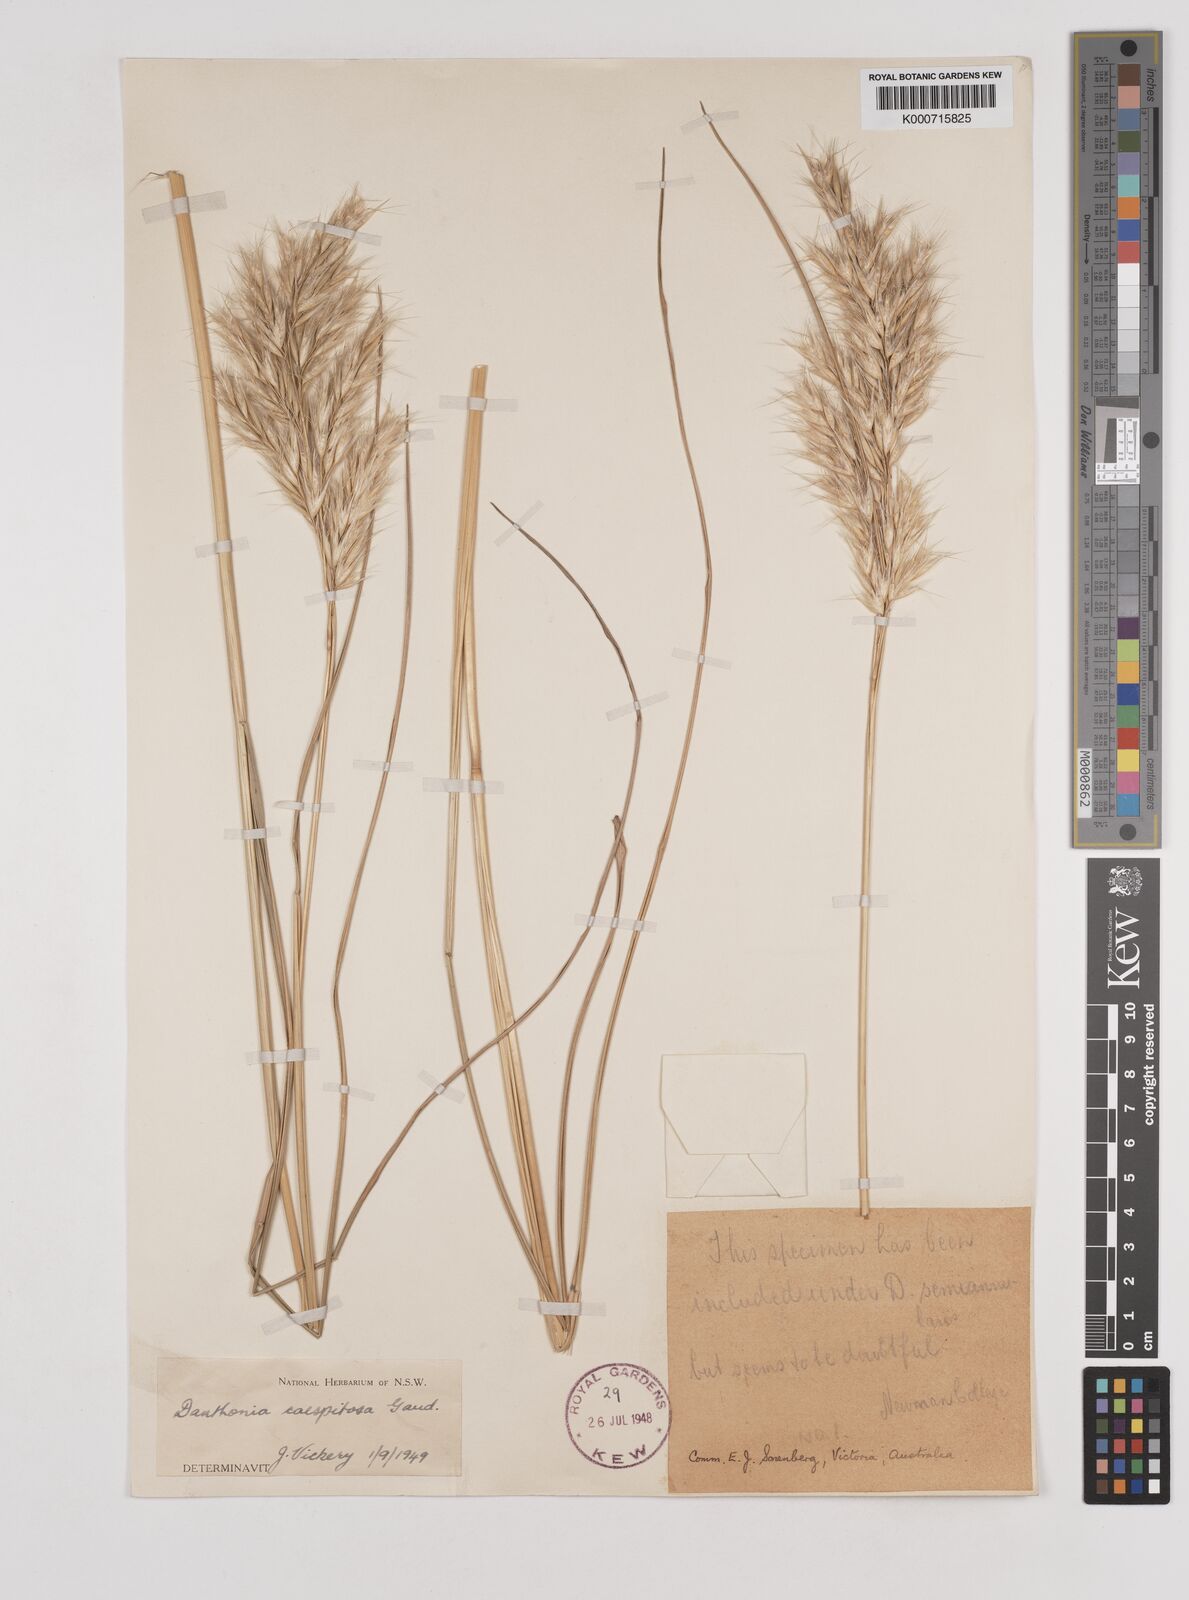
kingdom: Plantae
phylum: Tracheophyta
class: Liliopsida
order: Poales
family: Poaceae
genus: Rytidosperma
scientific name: Rytidosperma caespitosum
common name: Tufted wallaby grass
